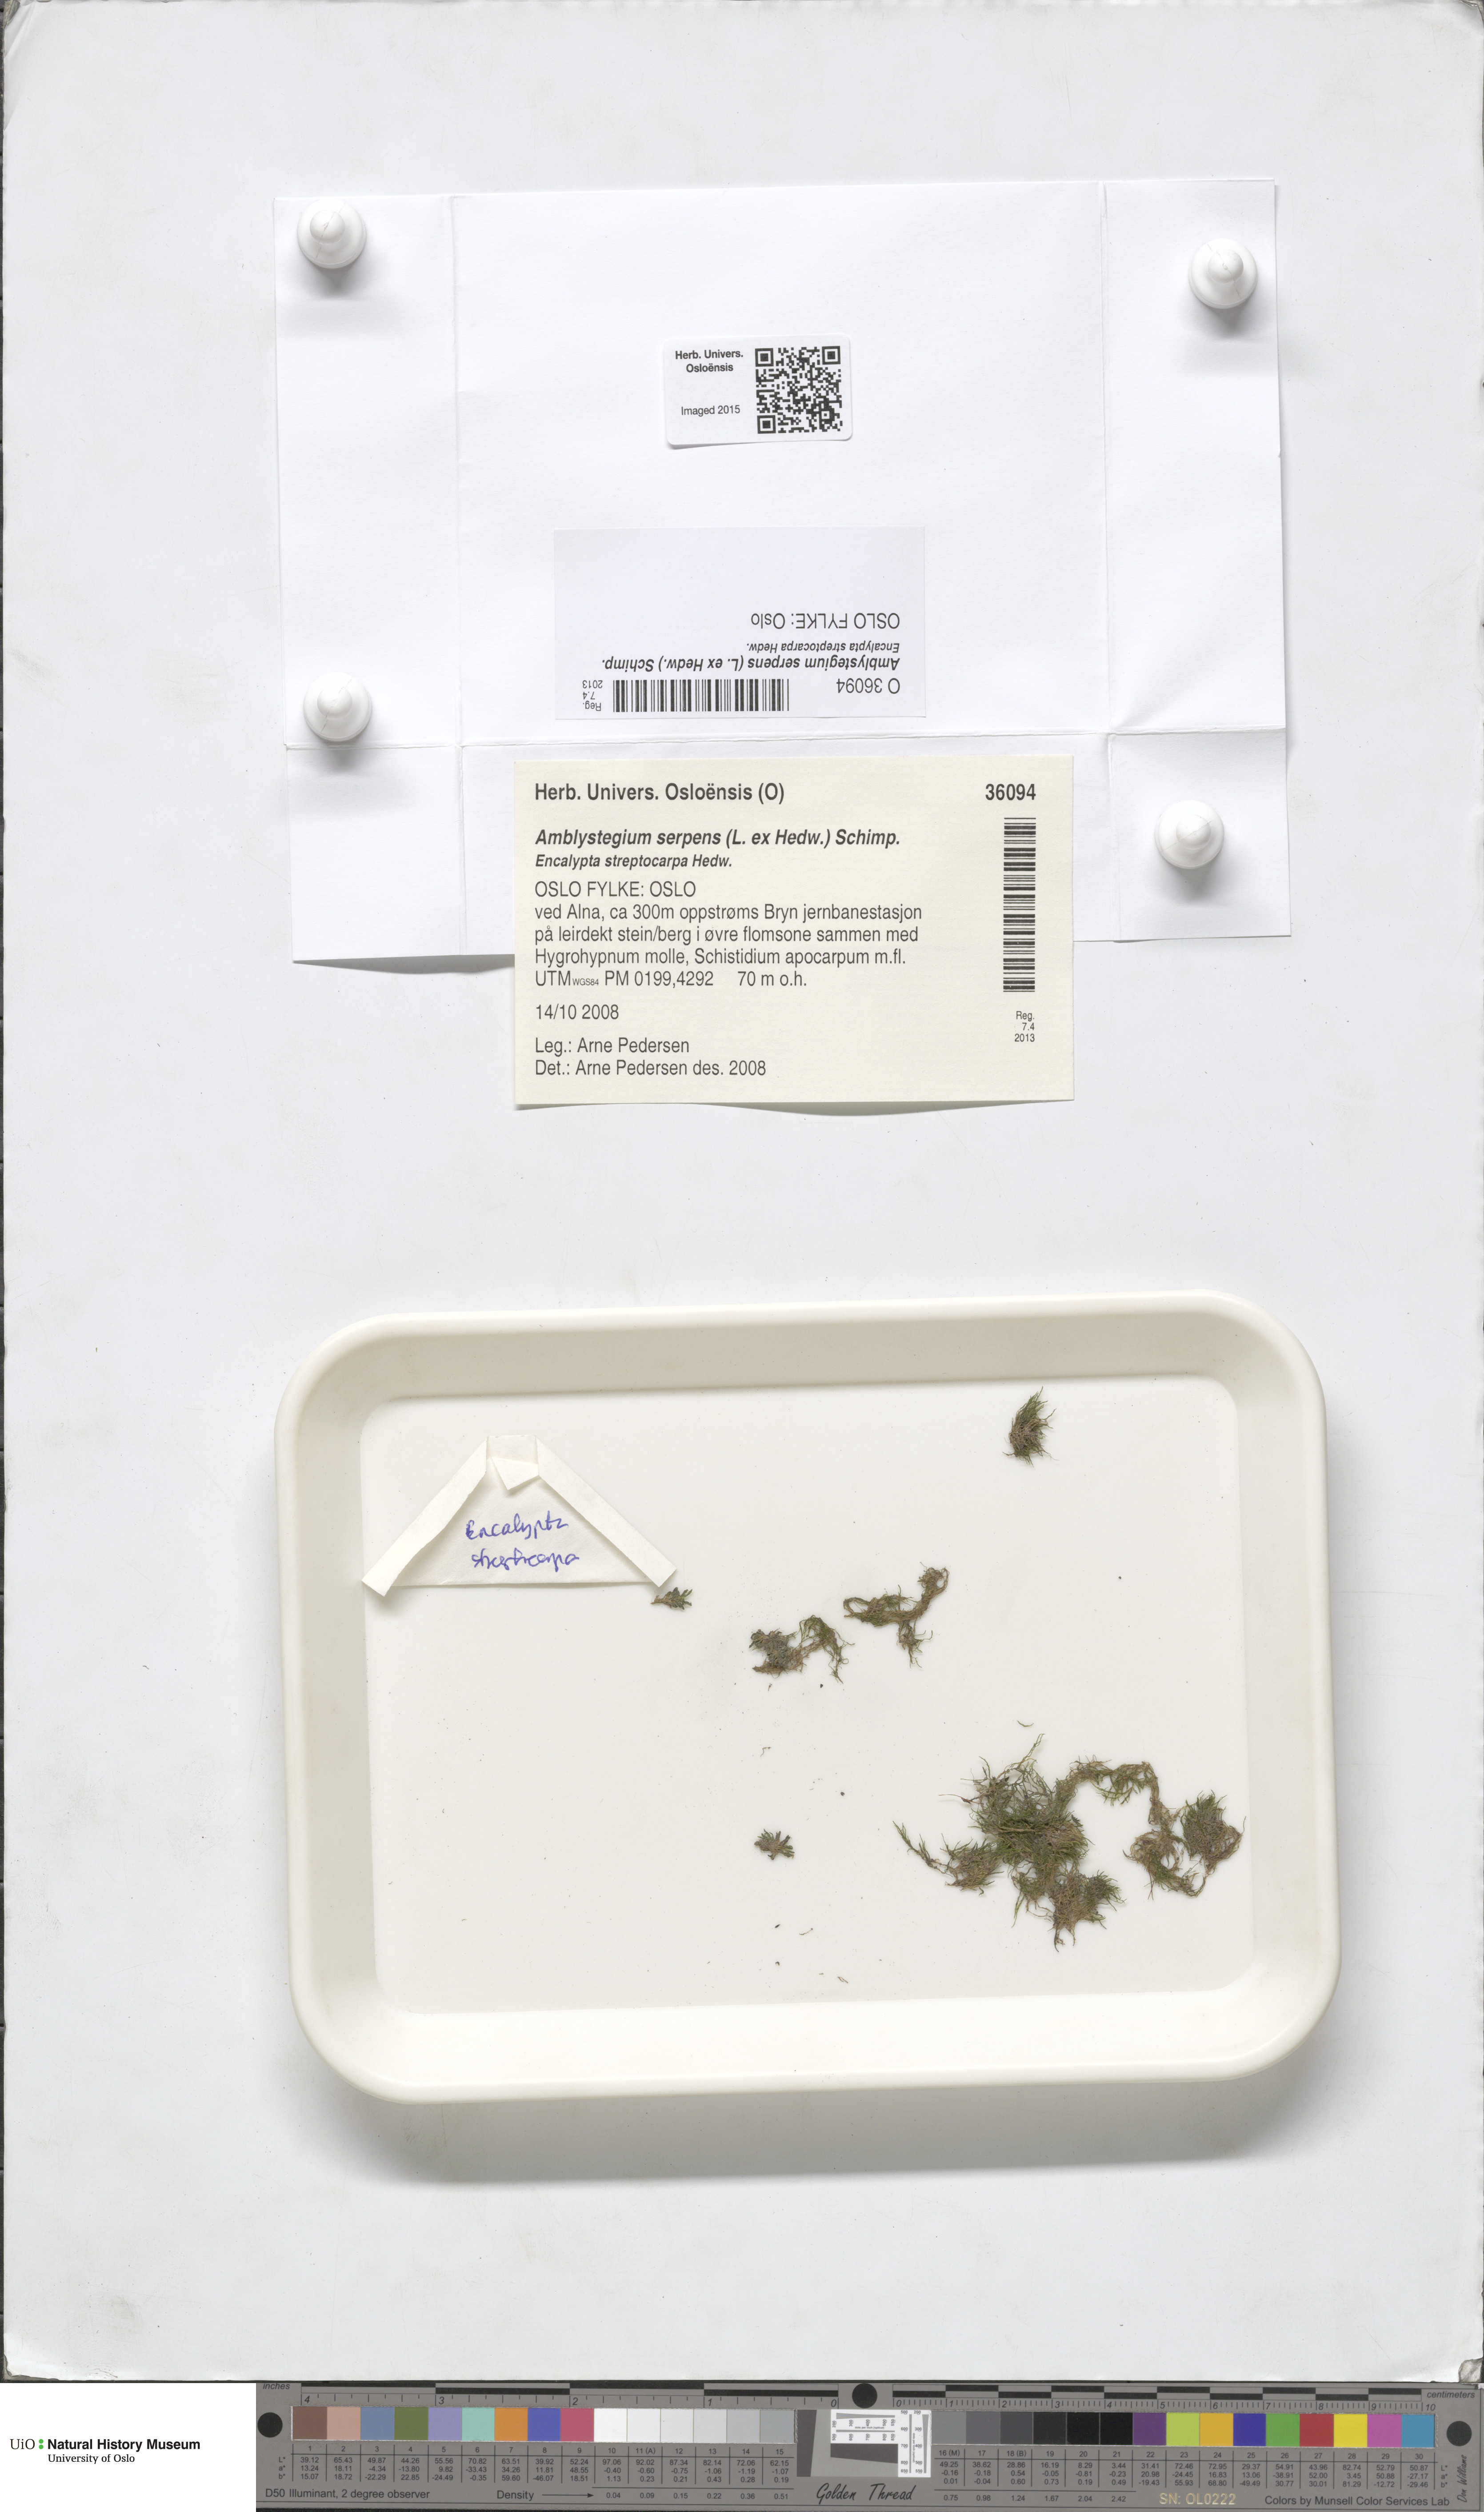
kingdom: Plantae
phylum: Bryophyta
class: Bryopsida
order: Hypnales
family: Amblystegiaceae
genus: Amblystegium
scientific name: Amblystegium serpens
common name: Jurkatzka's feather moss
